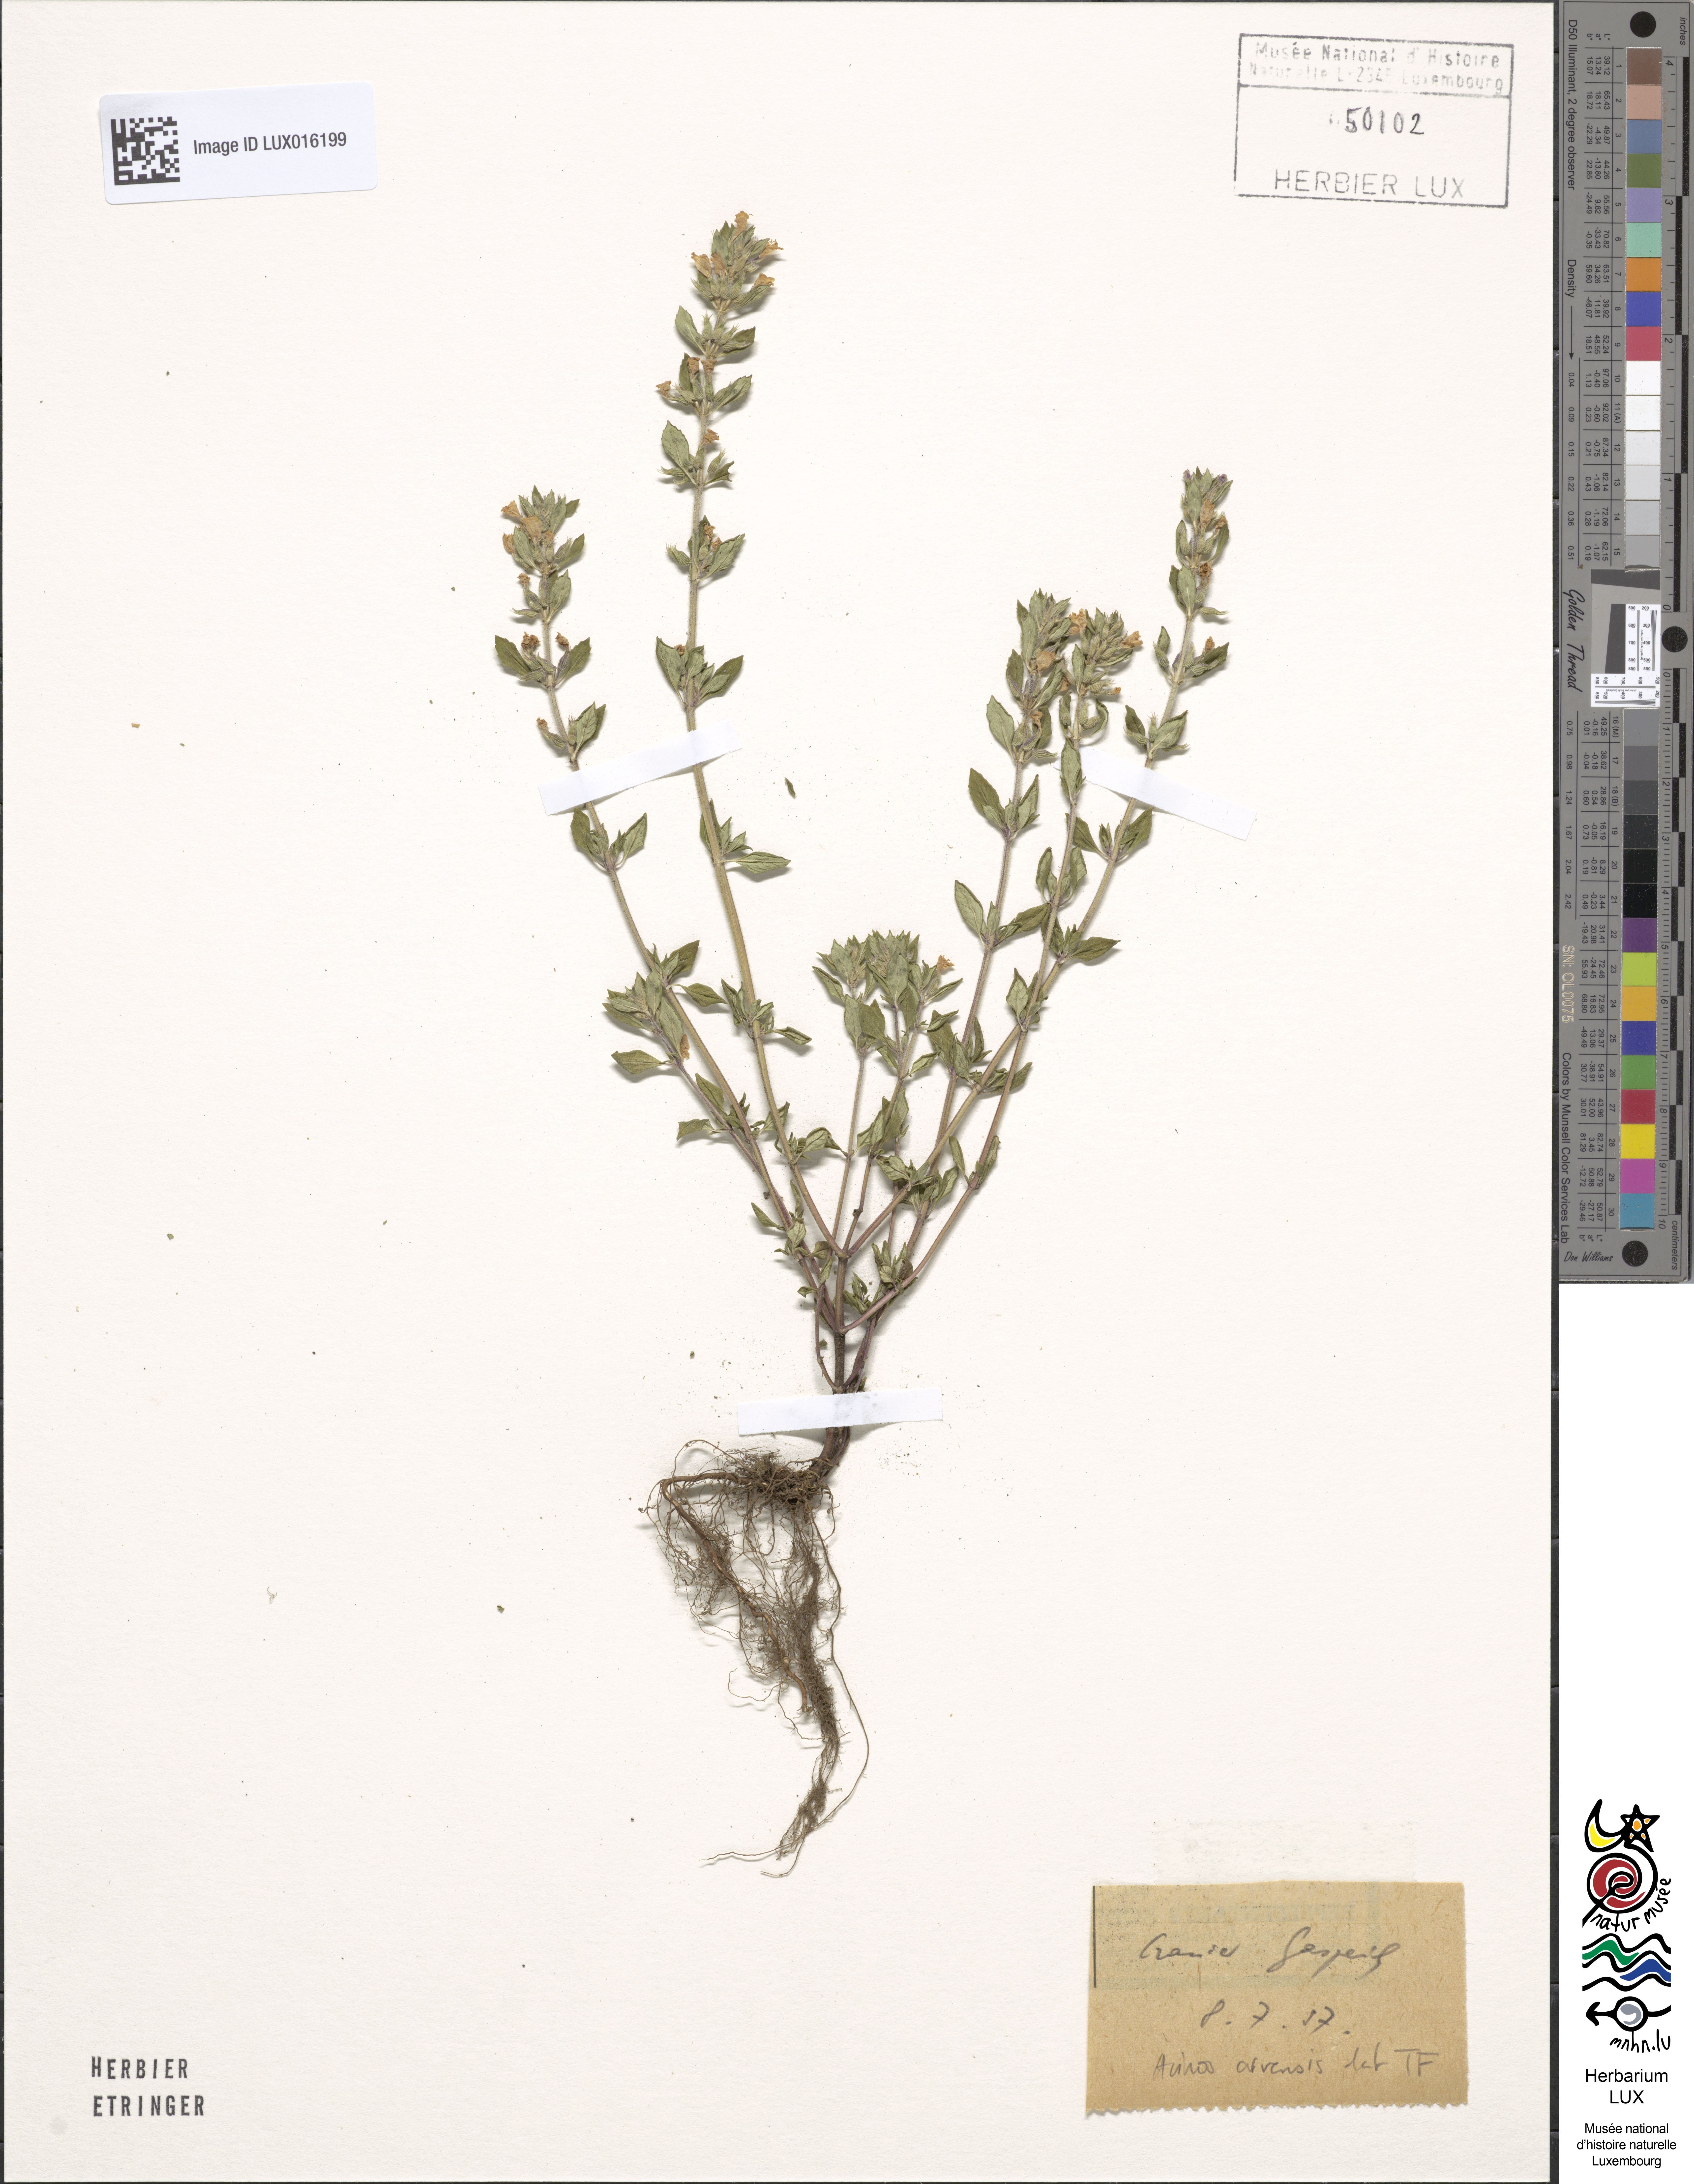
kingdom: Plantae
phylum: Tracheophyta
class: Magnoliopsida
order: Lamiales
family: Lamiaceae
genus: Clinopodium
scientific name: Clinopodium acinos
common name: Basil thyme
